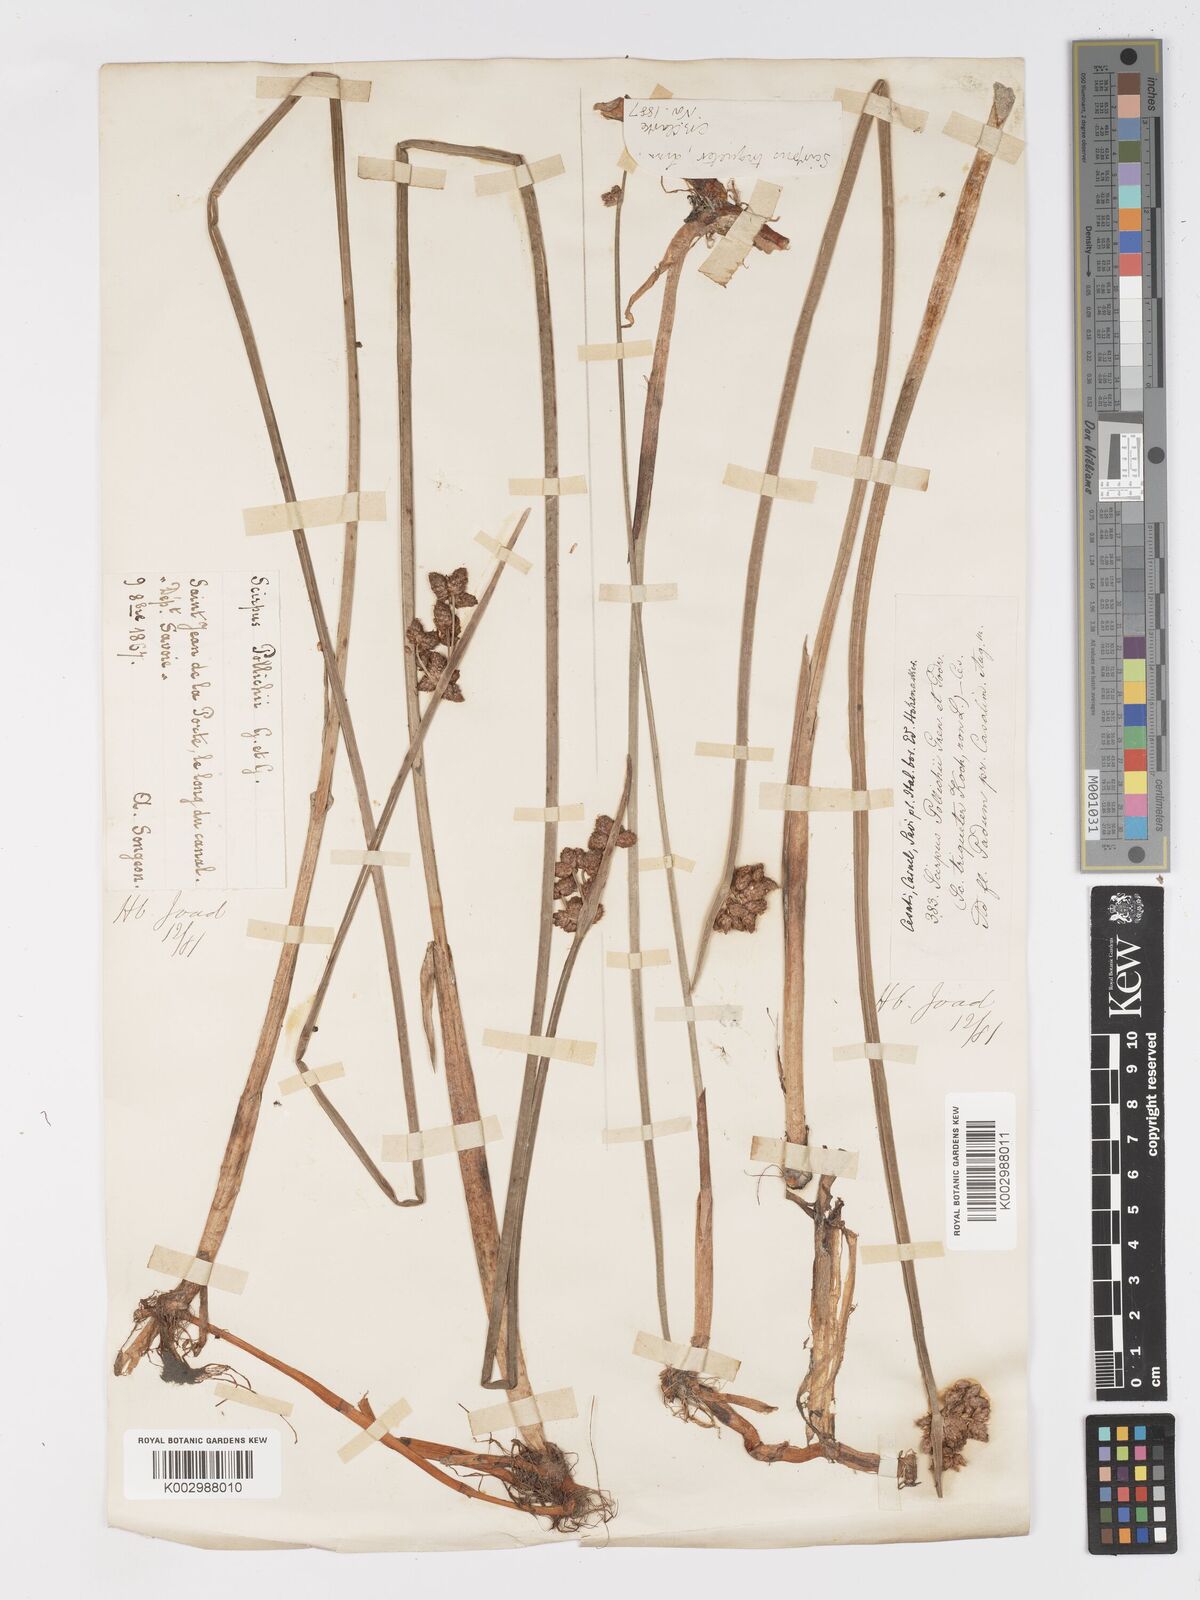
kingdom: Plantae
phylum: Tracheophyta
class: Liliopsida
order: Poales
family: Cyperaceae
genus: Schoenoplectus
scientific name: Schoenoplectus triqueter
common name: Triangular club-rush
